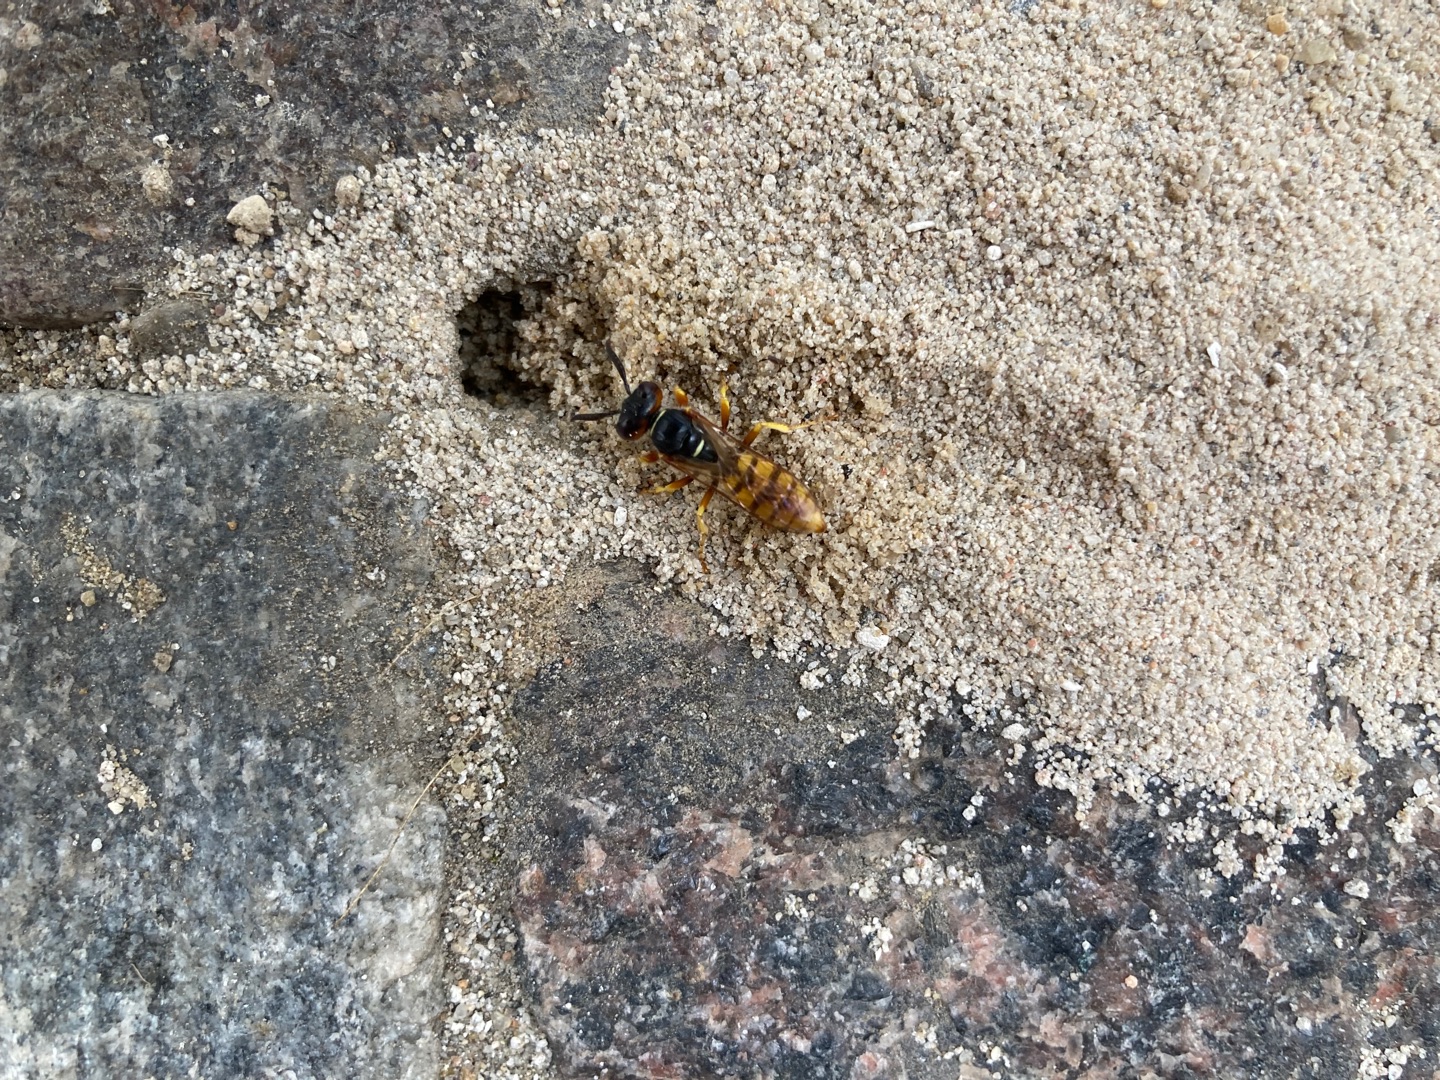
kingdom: Animalia
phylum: Arthropoda
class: Insecta
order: Hymenoptera
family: Crabronidae
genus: Philanthus
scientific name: Philanthus triangulum
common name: Biulv
